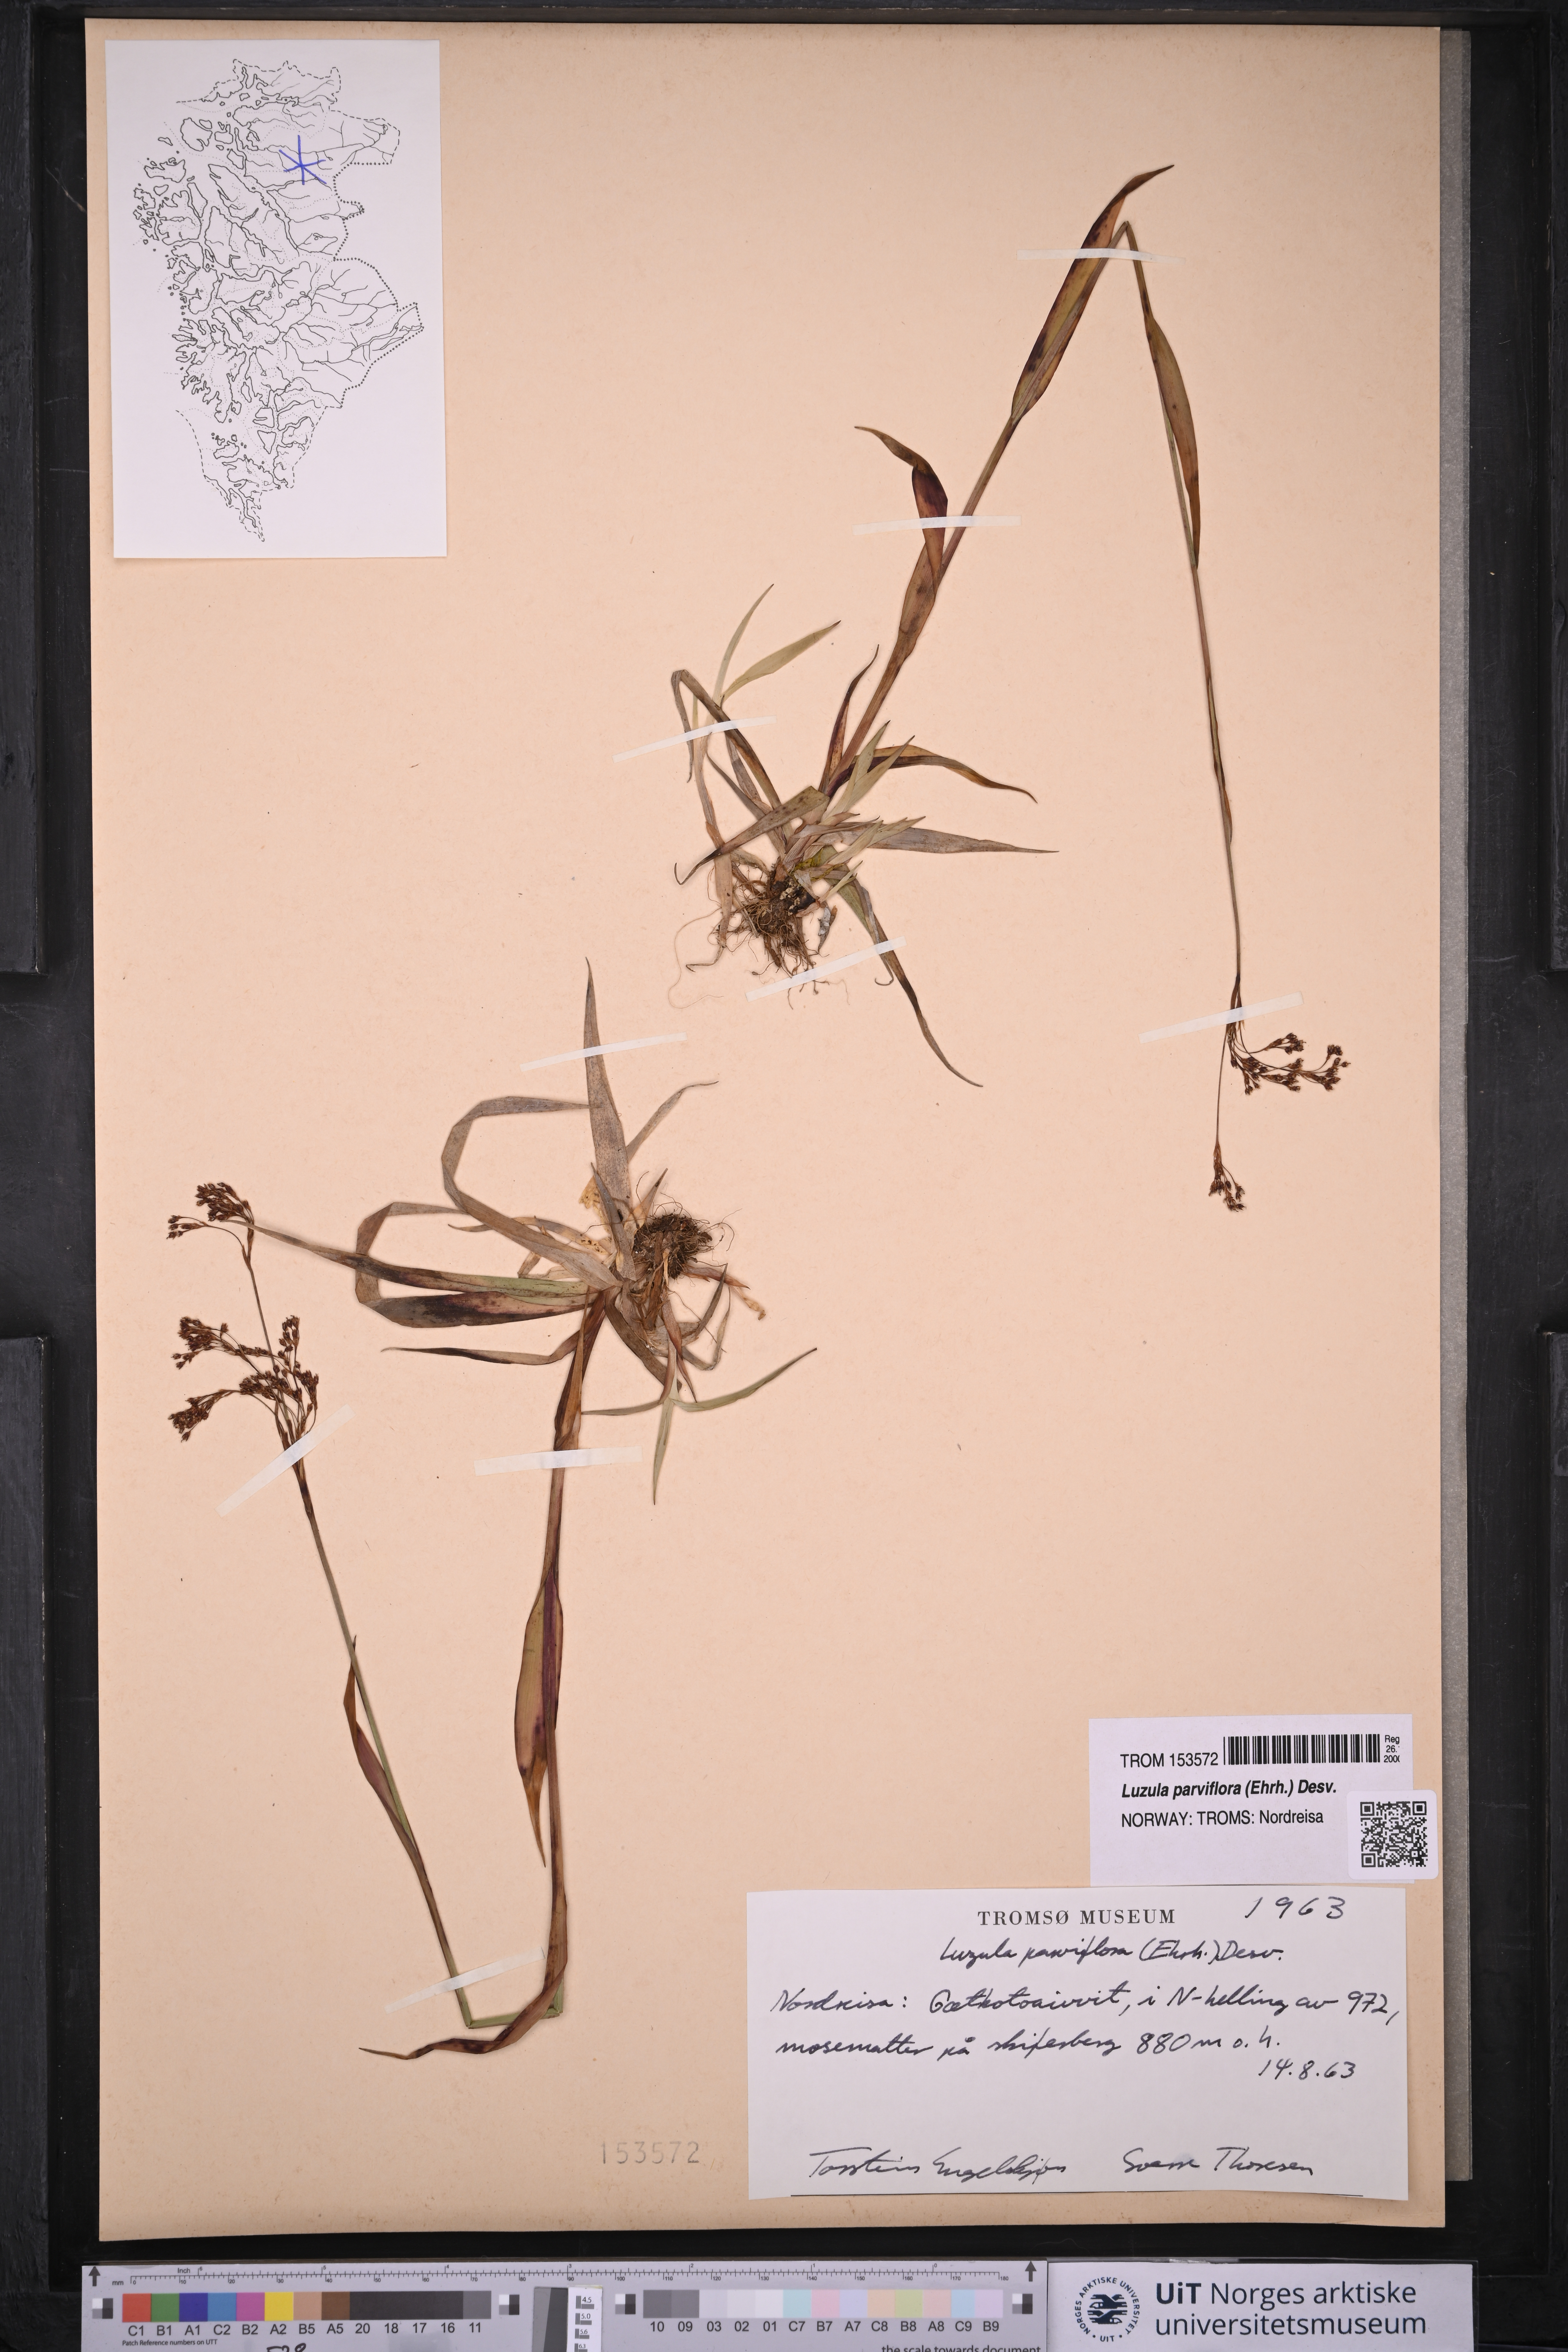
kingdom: Plantae
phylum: Tracheophyta
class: Liliopsida
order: Poales
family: Juncaceae
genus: Luzula
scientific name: Luzula parviflora
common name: Millet woodrush
